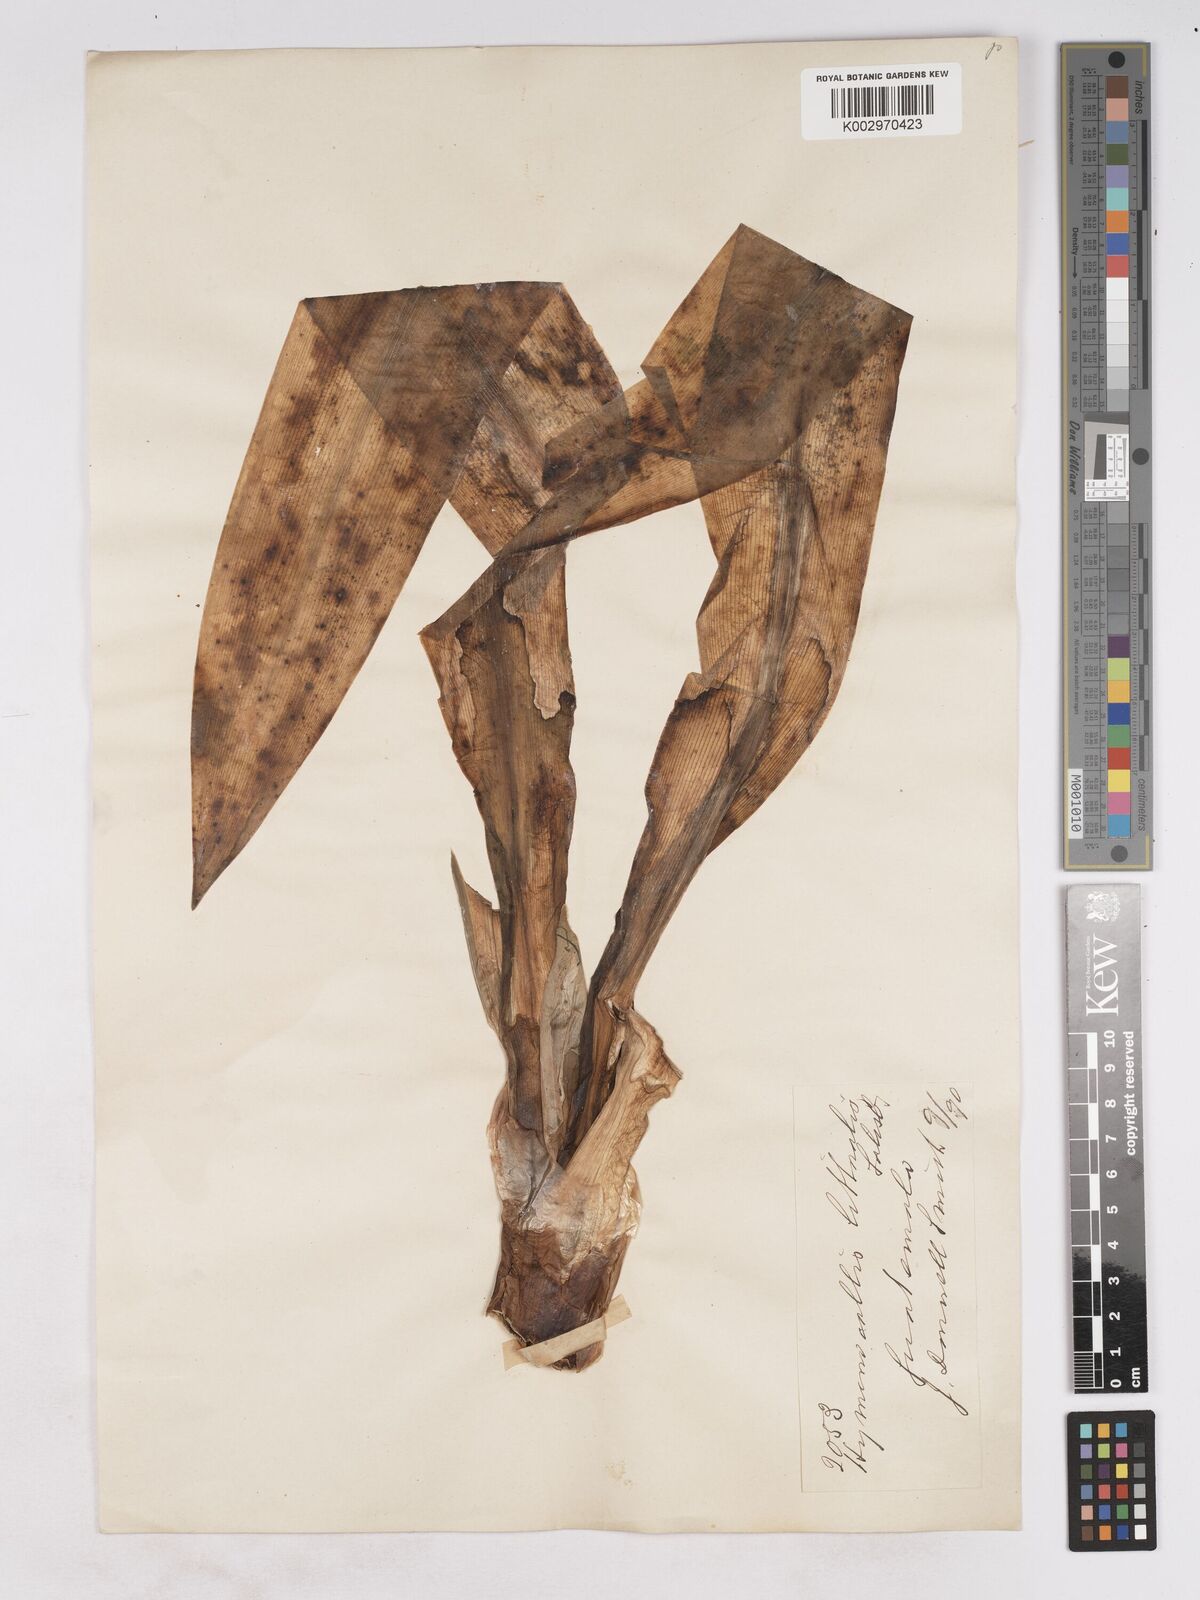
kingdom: Plantae
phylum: Tracheophyta
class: Liliopsida
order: Asparagales
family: Amaryllidaceae
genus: Hymenocallis
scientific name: Hymenocallis littoralis
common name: Beach spiderlily
